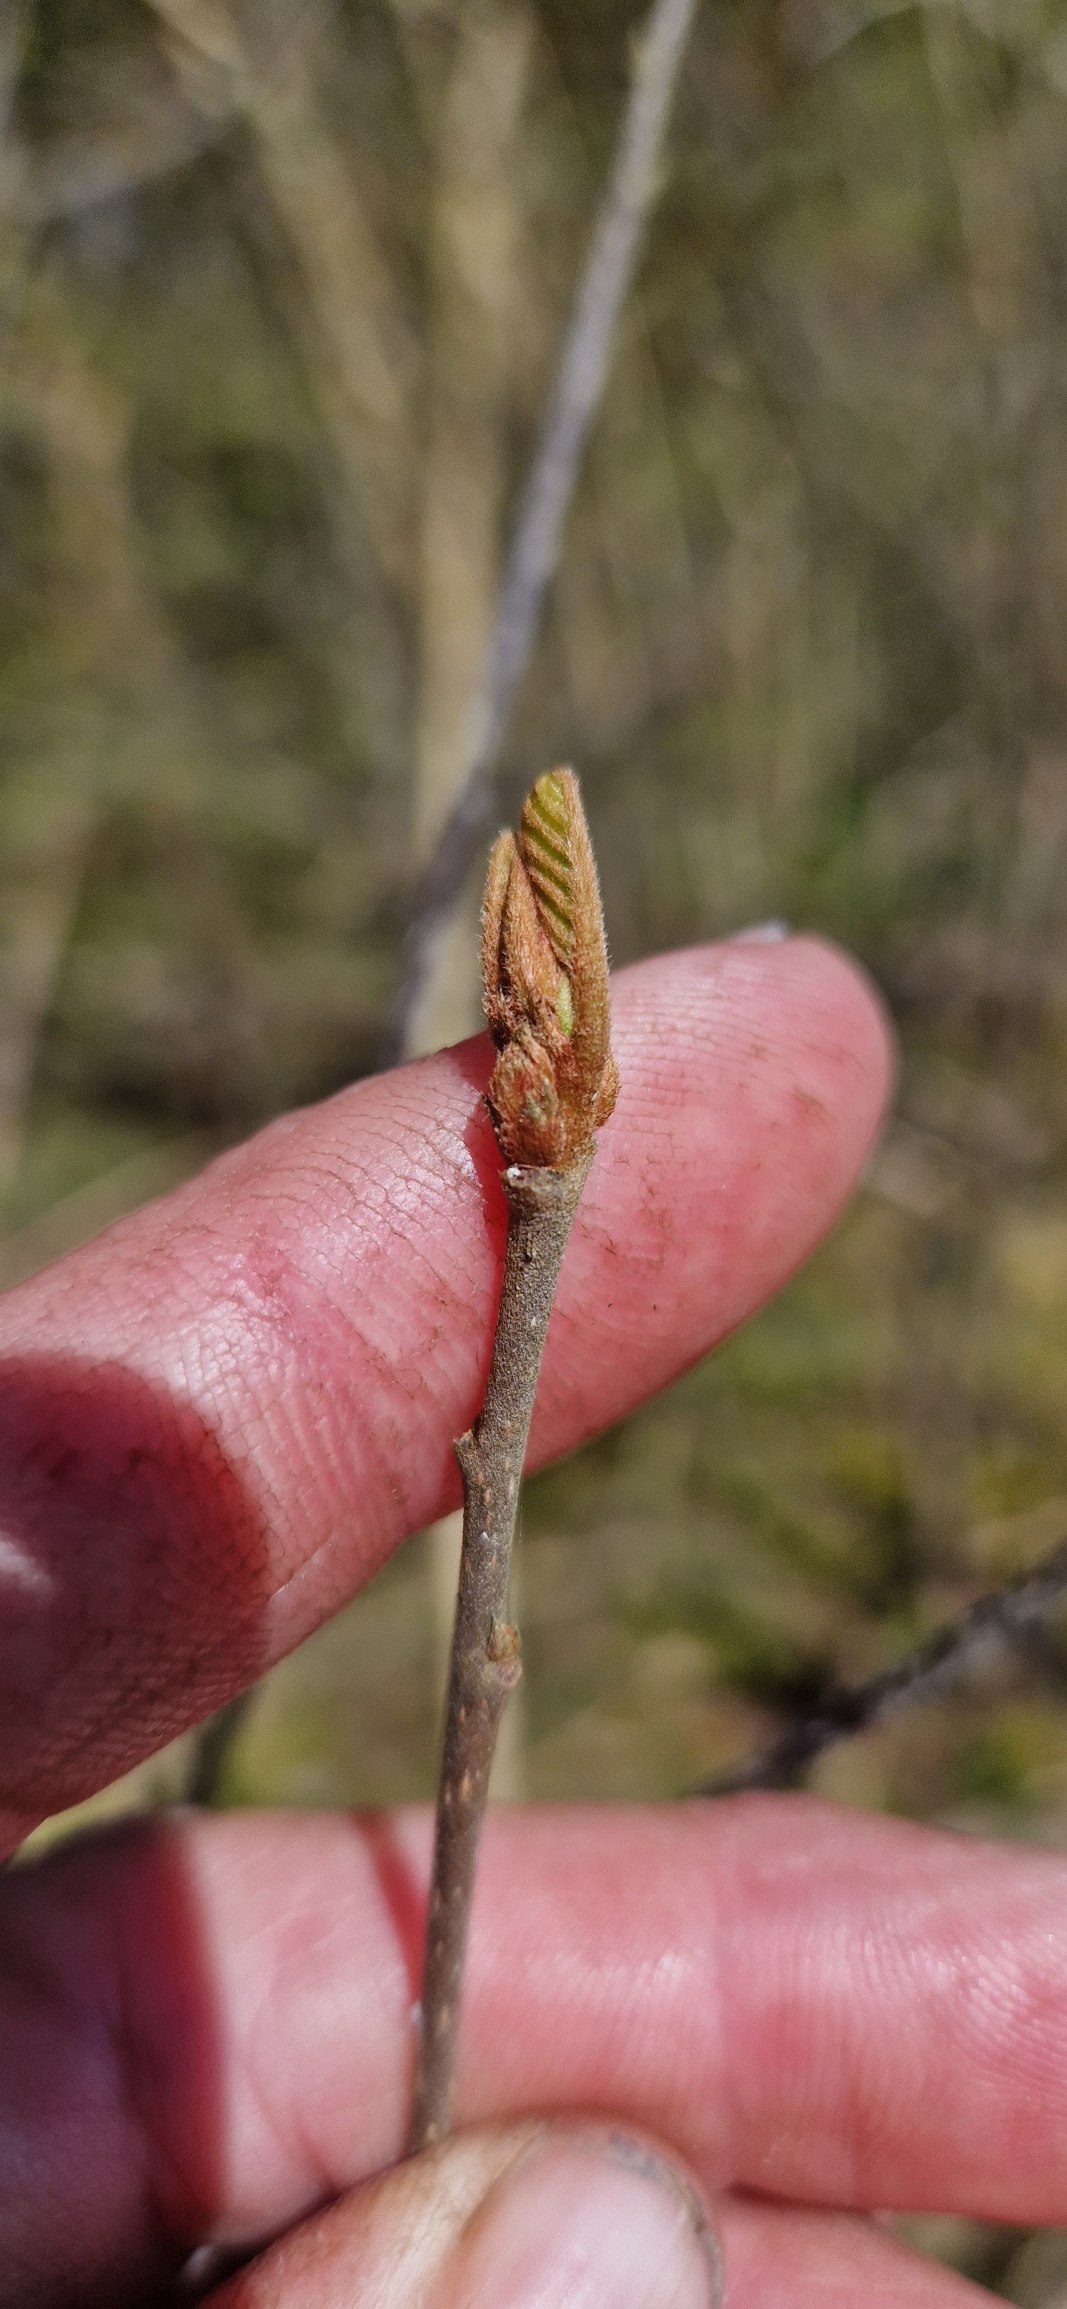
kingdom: Plantae
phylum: Tracheophyta
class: Magnoliopsida
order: Rosales
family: Rhamnaceae
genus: Frangula
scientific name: Frangula alnus
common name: Tørst
